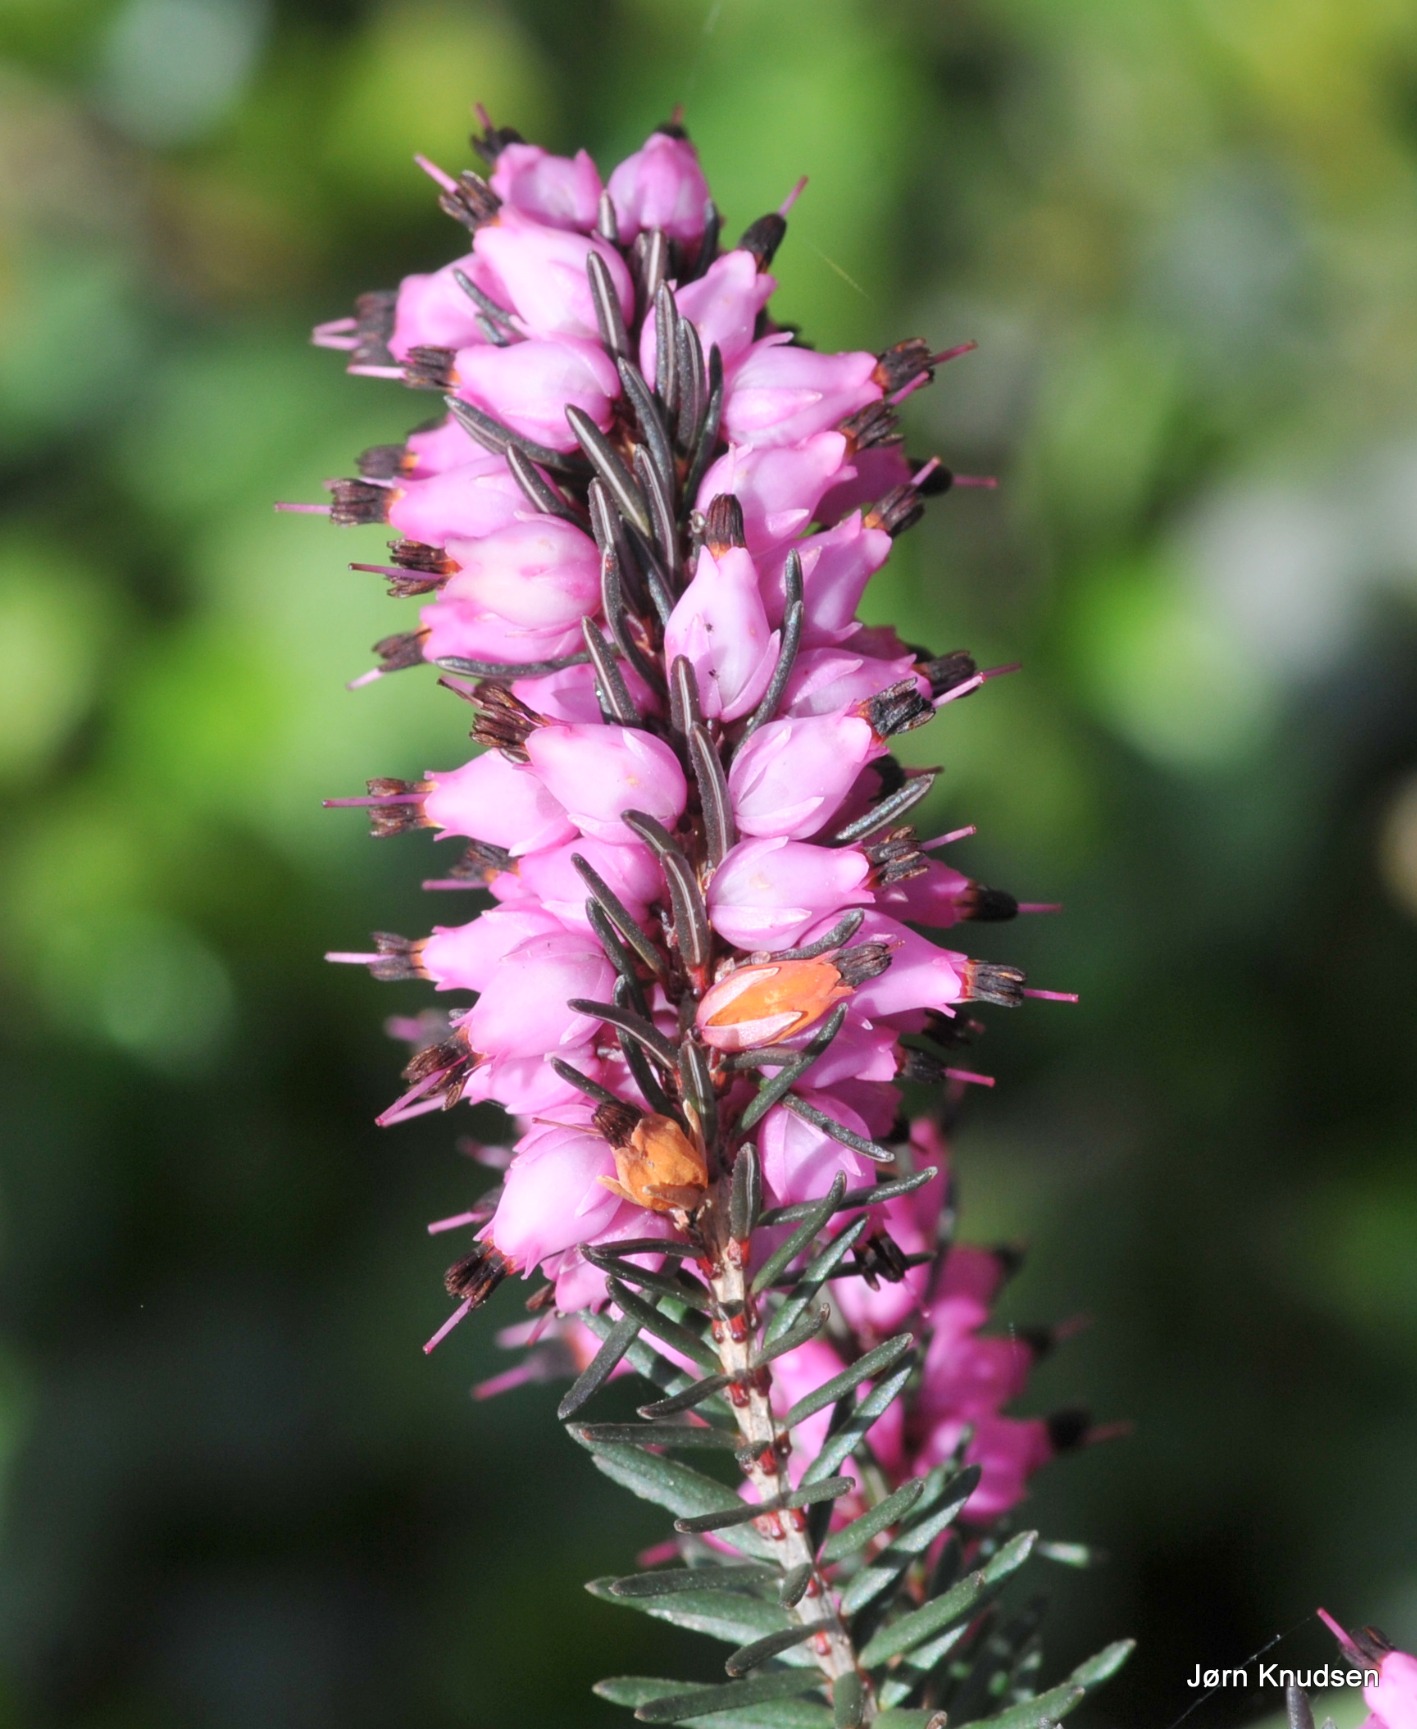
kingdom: Plantae
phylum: Tracheophyta
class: Magnoliopsida
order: Ericales
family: Ericaceae
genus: Calluna
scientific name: Calluna vulgaris
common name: Hedelyng
